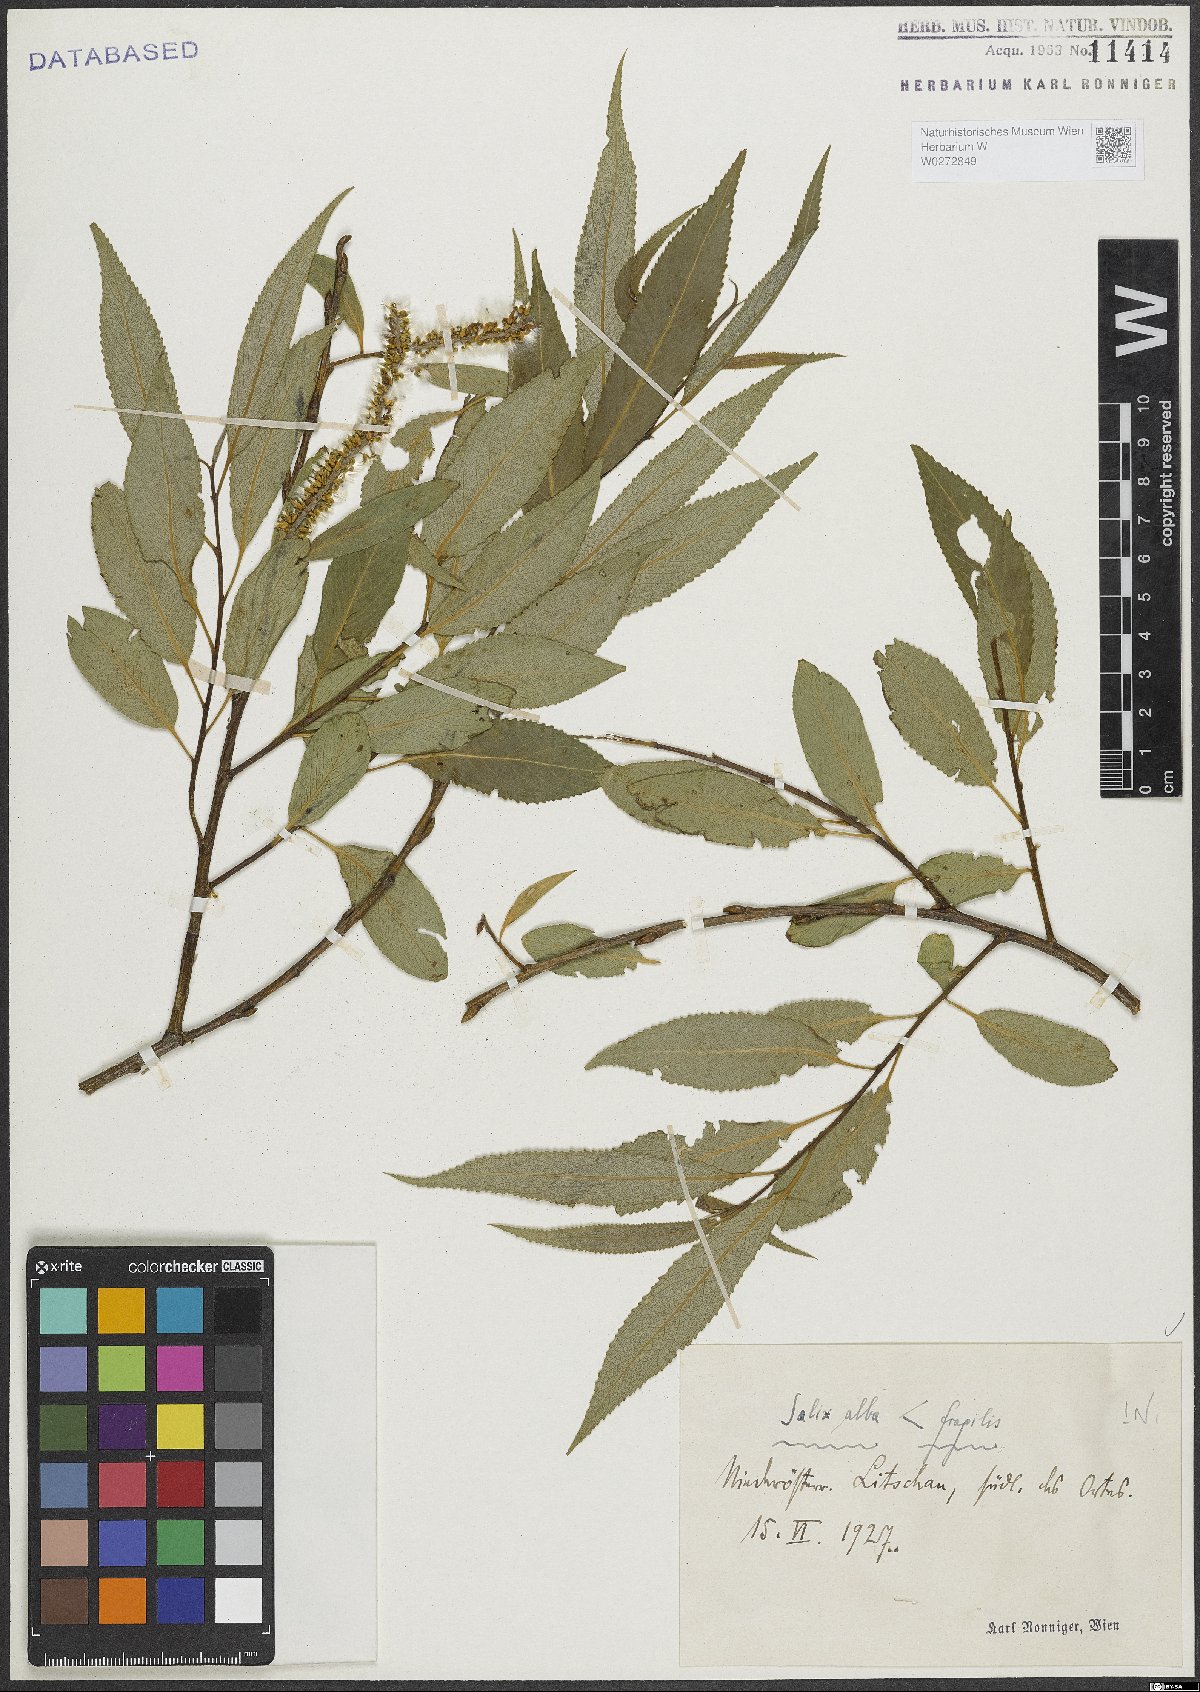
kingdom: Plantae
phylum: Tracheophyta
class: Magnoliopsida
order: Malpighiales
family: Salicaceae
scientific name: Salicaceae
